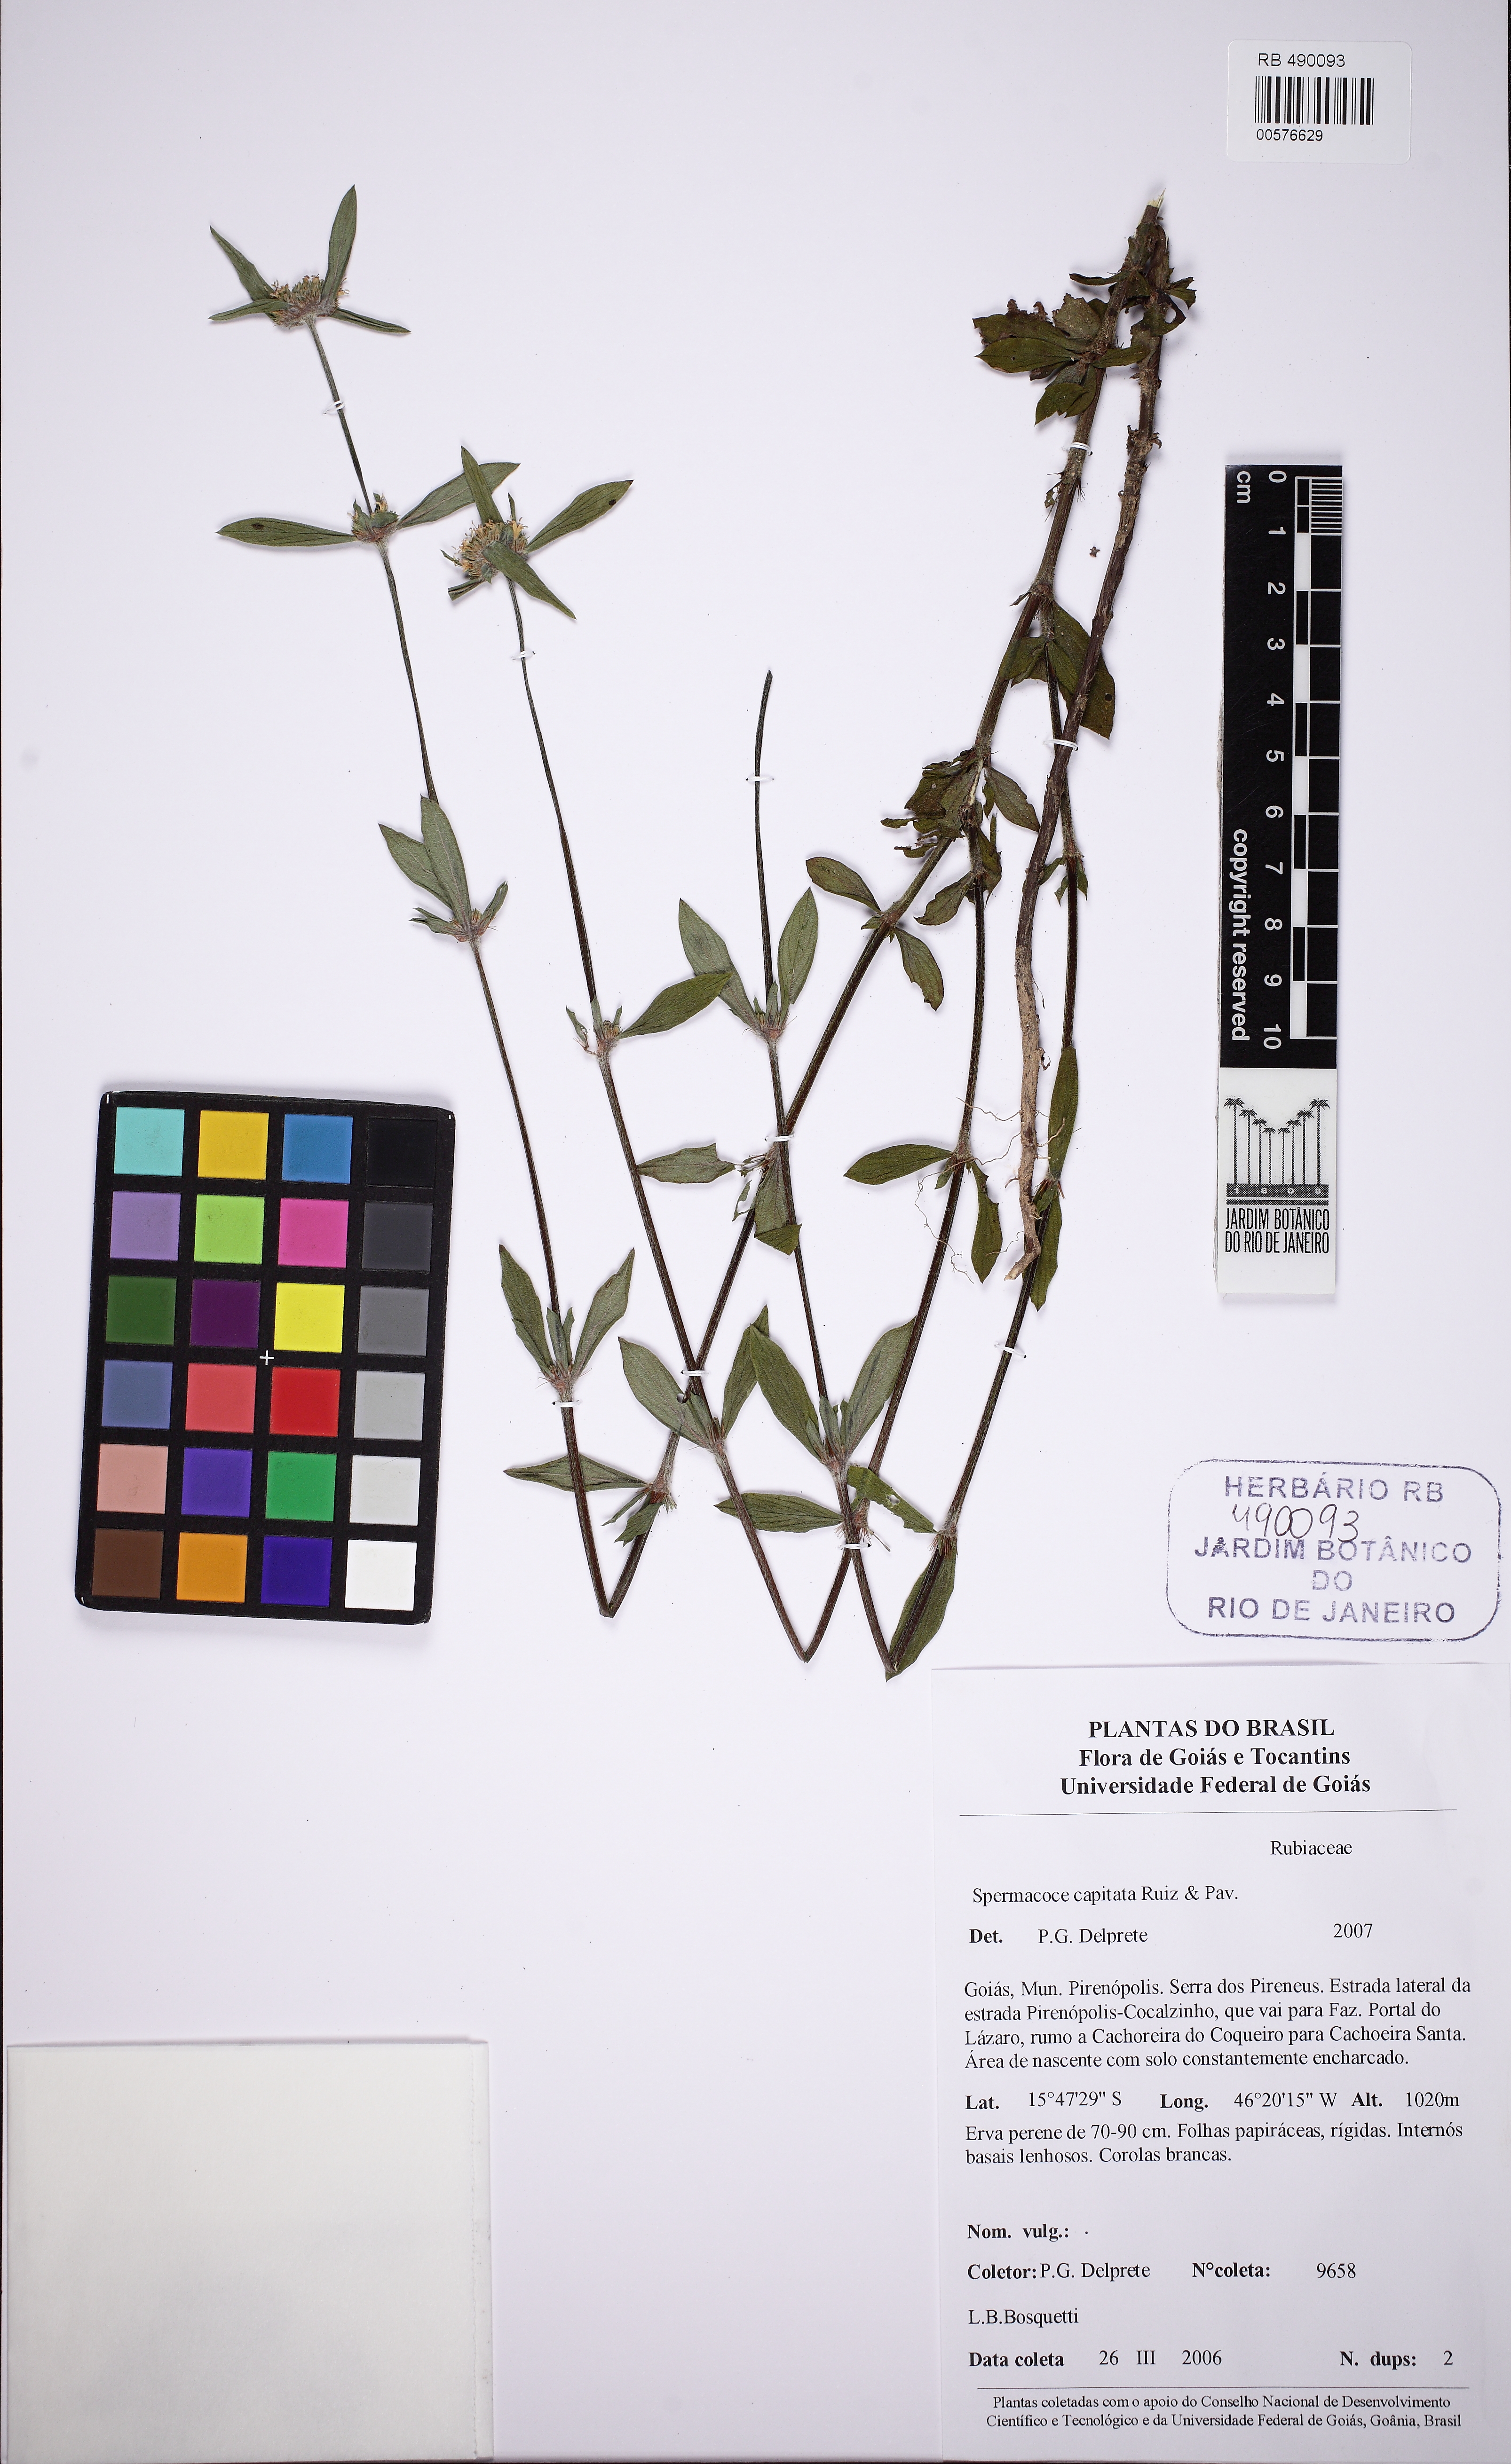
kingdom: Plantae
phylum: Tracheophyta
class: Magnoliopsida
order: Gentianales
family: Rubiaceae
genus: Spermacoce
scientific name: Spermacoce capitata
